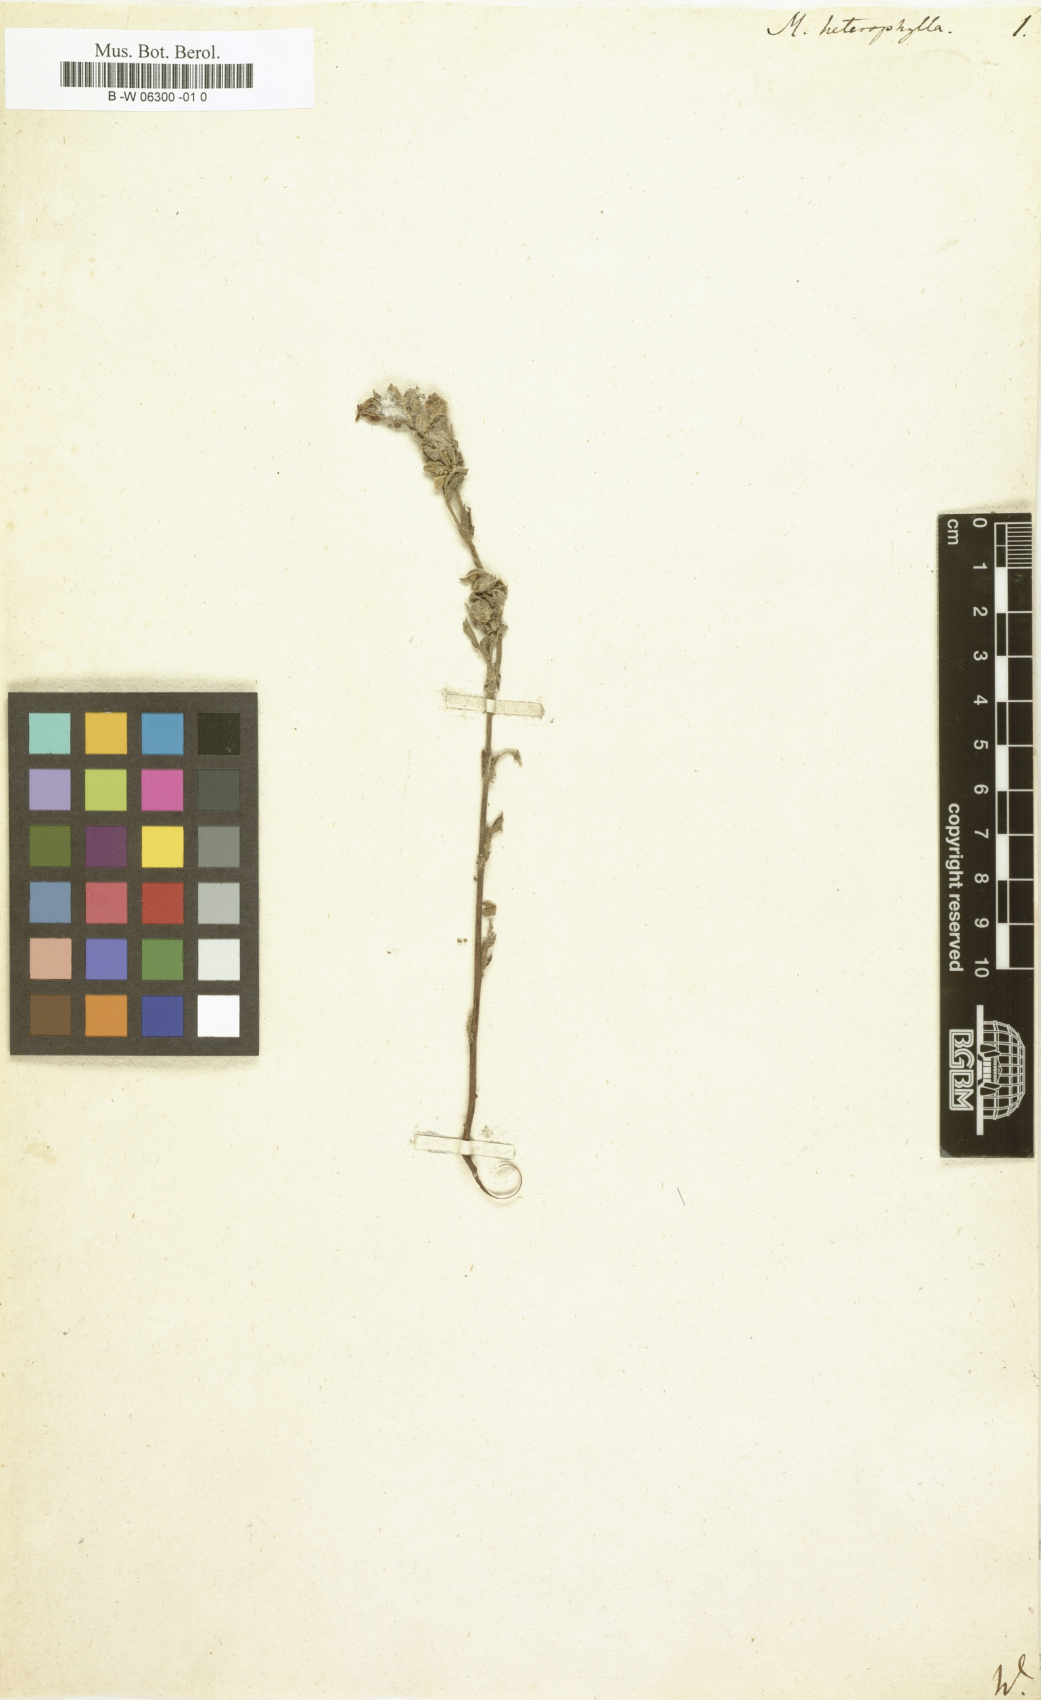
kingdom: Plantae
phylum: Tracheophyta
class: Magnoliopsida
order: Malvales
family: Malvaceae
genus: Hermannia
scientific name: Hermannia heterophylla
